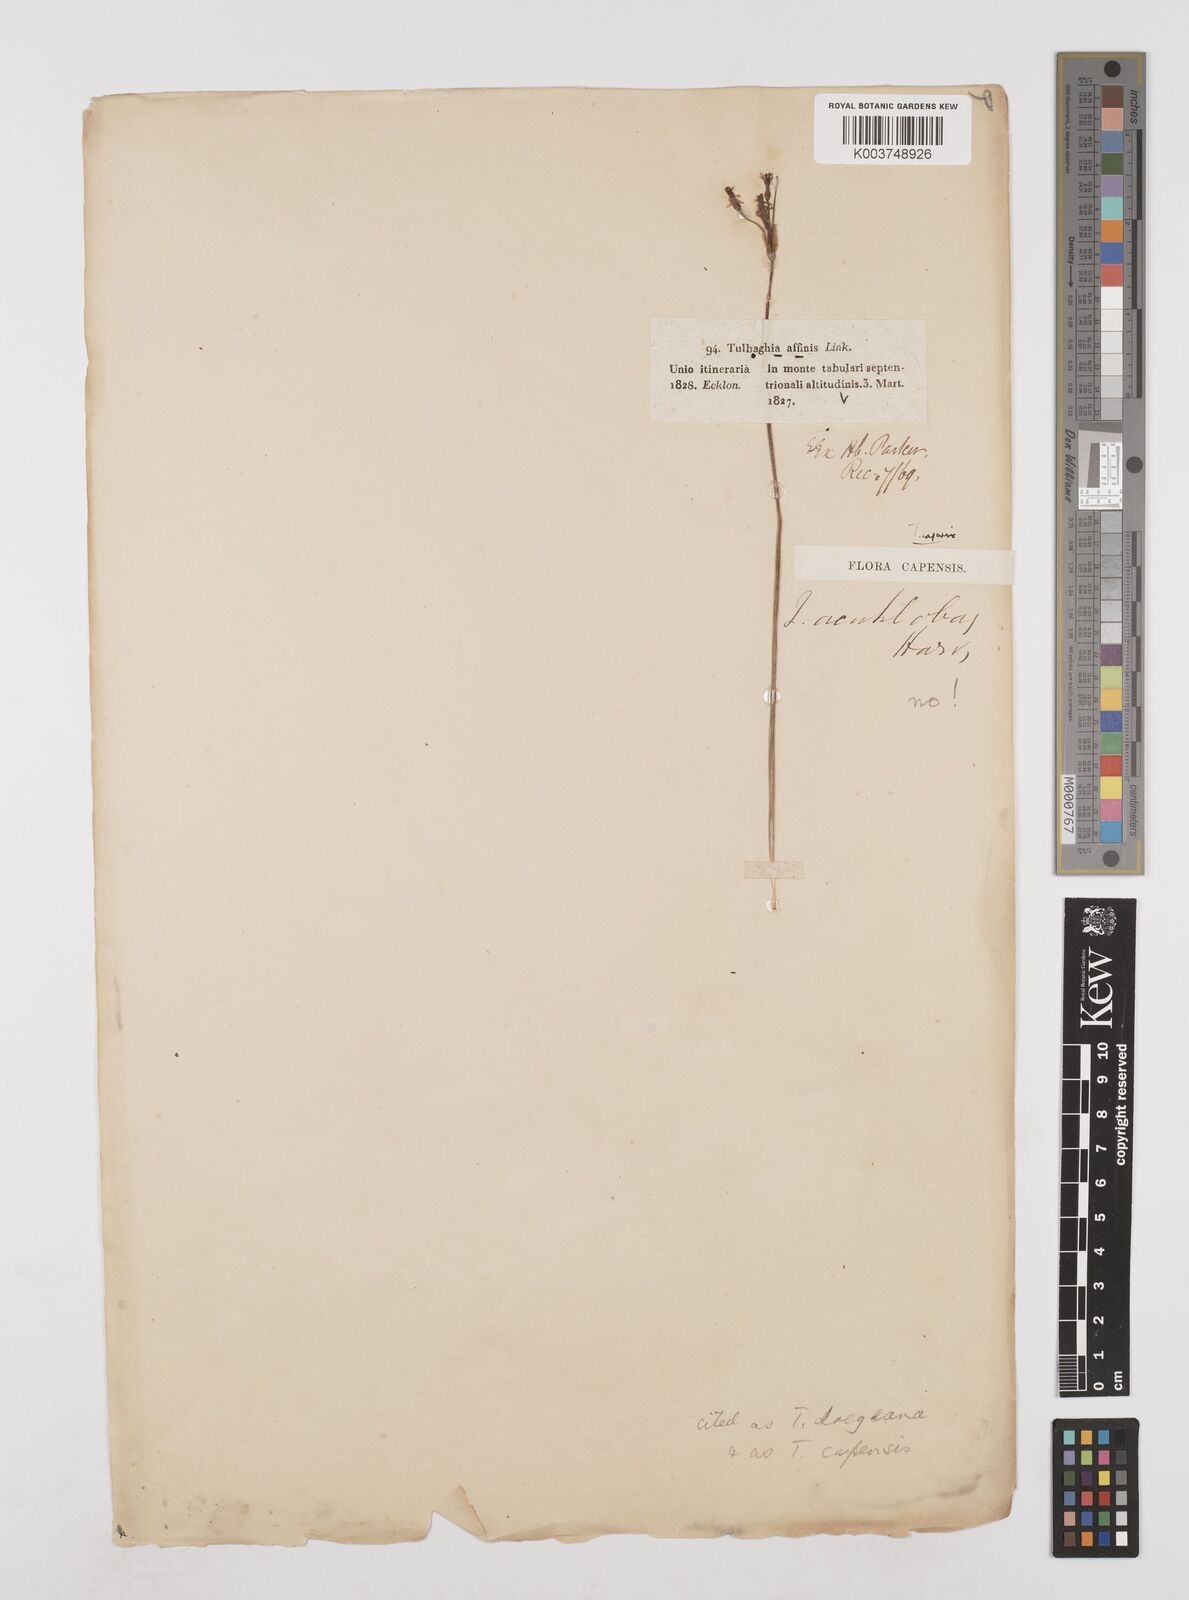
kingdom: Plantae
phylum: Tracheophyta
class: Liliopsida
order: Asparagales
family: Amaryllidaceae
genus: Tulbaghia
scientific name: Tulbaghia capensis
